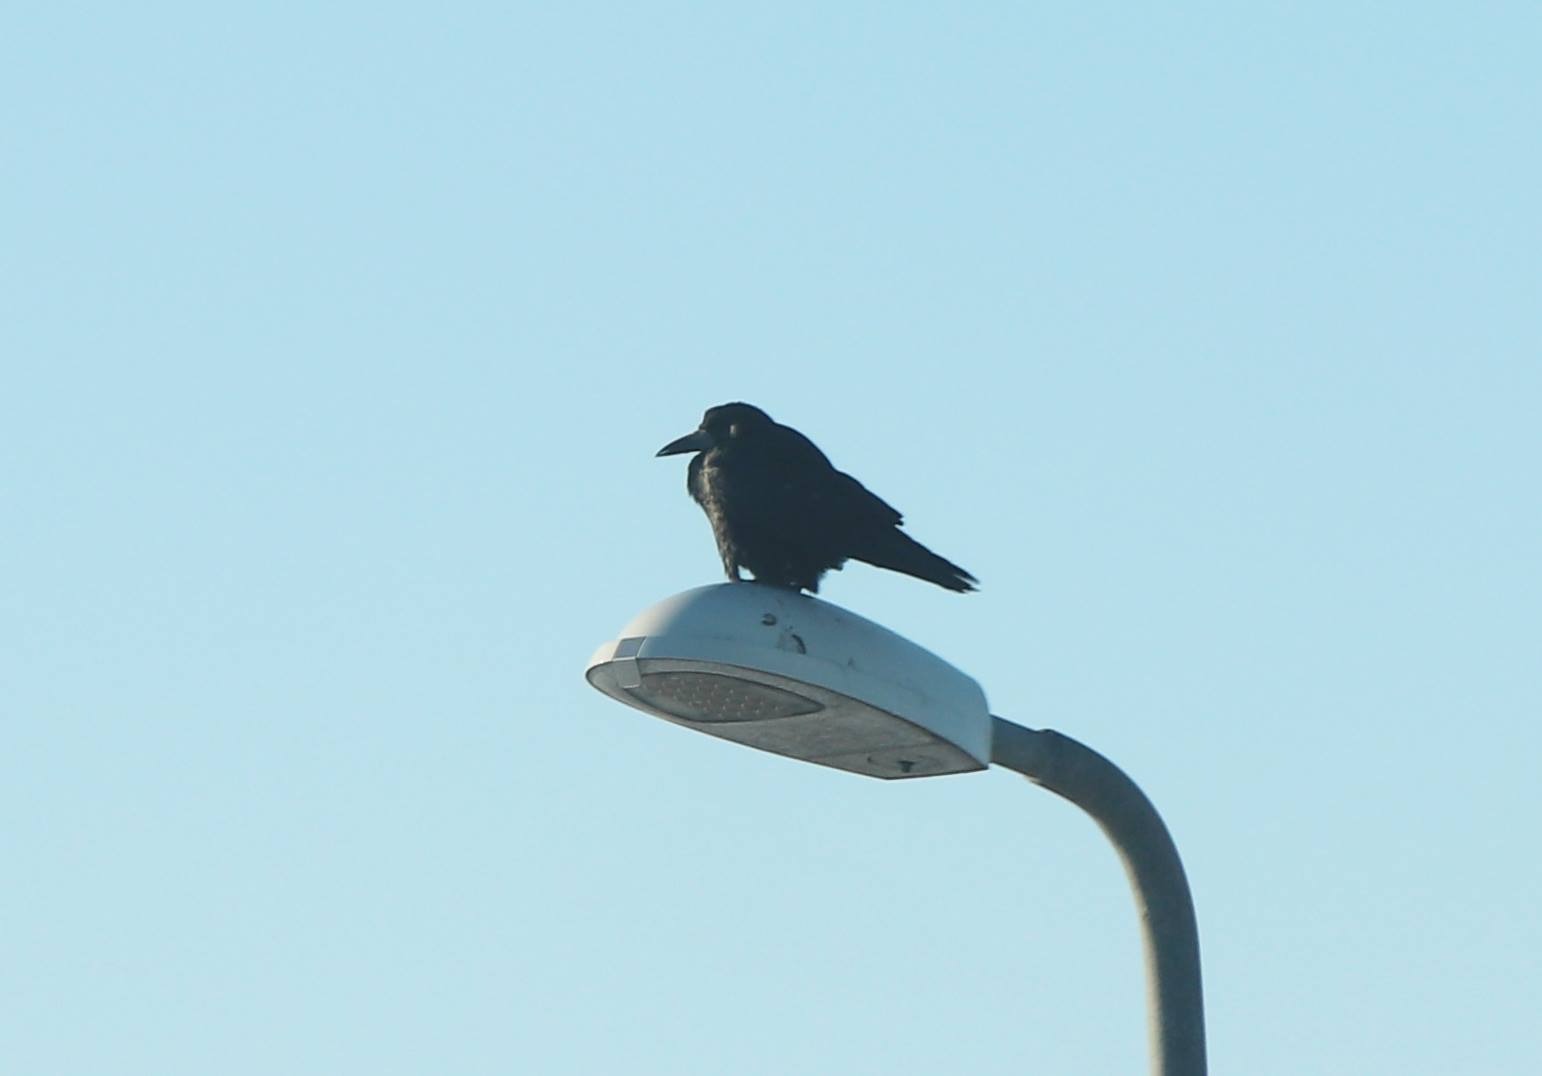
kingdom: Animalia
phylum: Chordata
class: Aves
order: Passeriformes
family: Corvidae
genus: Corvus
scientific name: Corvus frugilegus
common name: Råge
